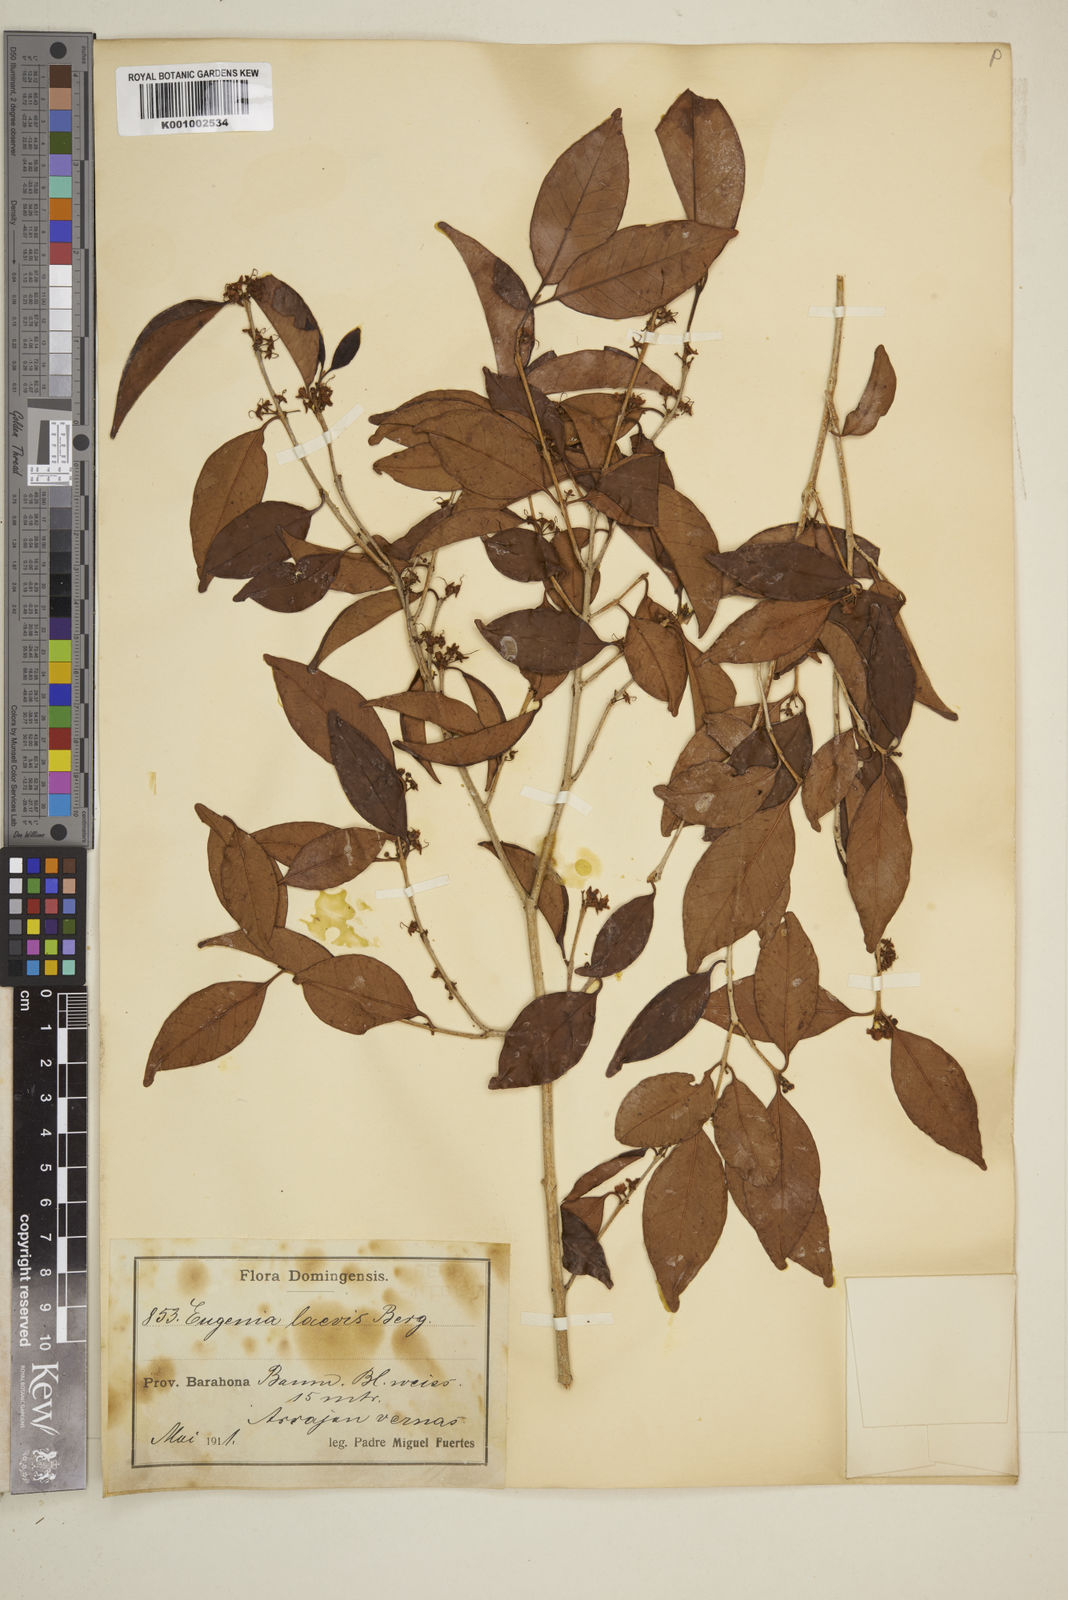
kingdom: Plantae
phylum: Tracheophyta
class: Magnoliopsida
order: Myrtales
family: Myrtaceae
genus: Eugenia
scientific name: Eugenia laevis
